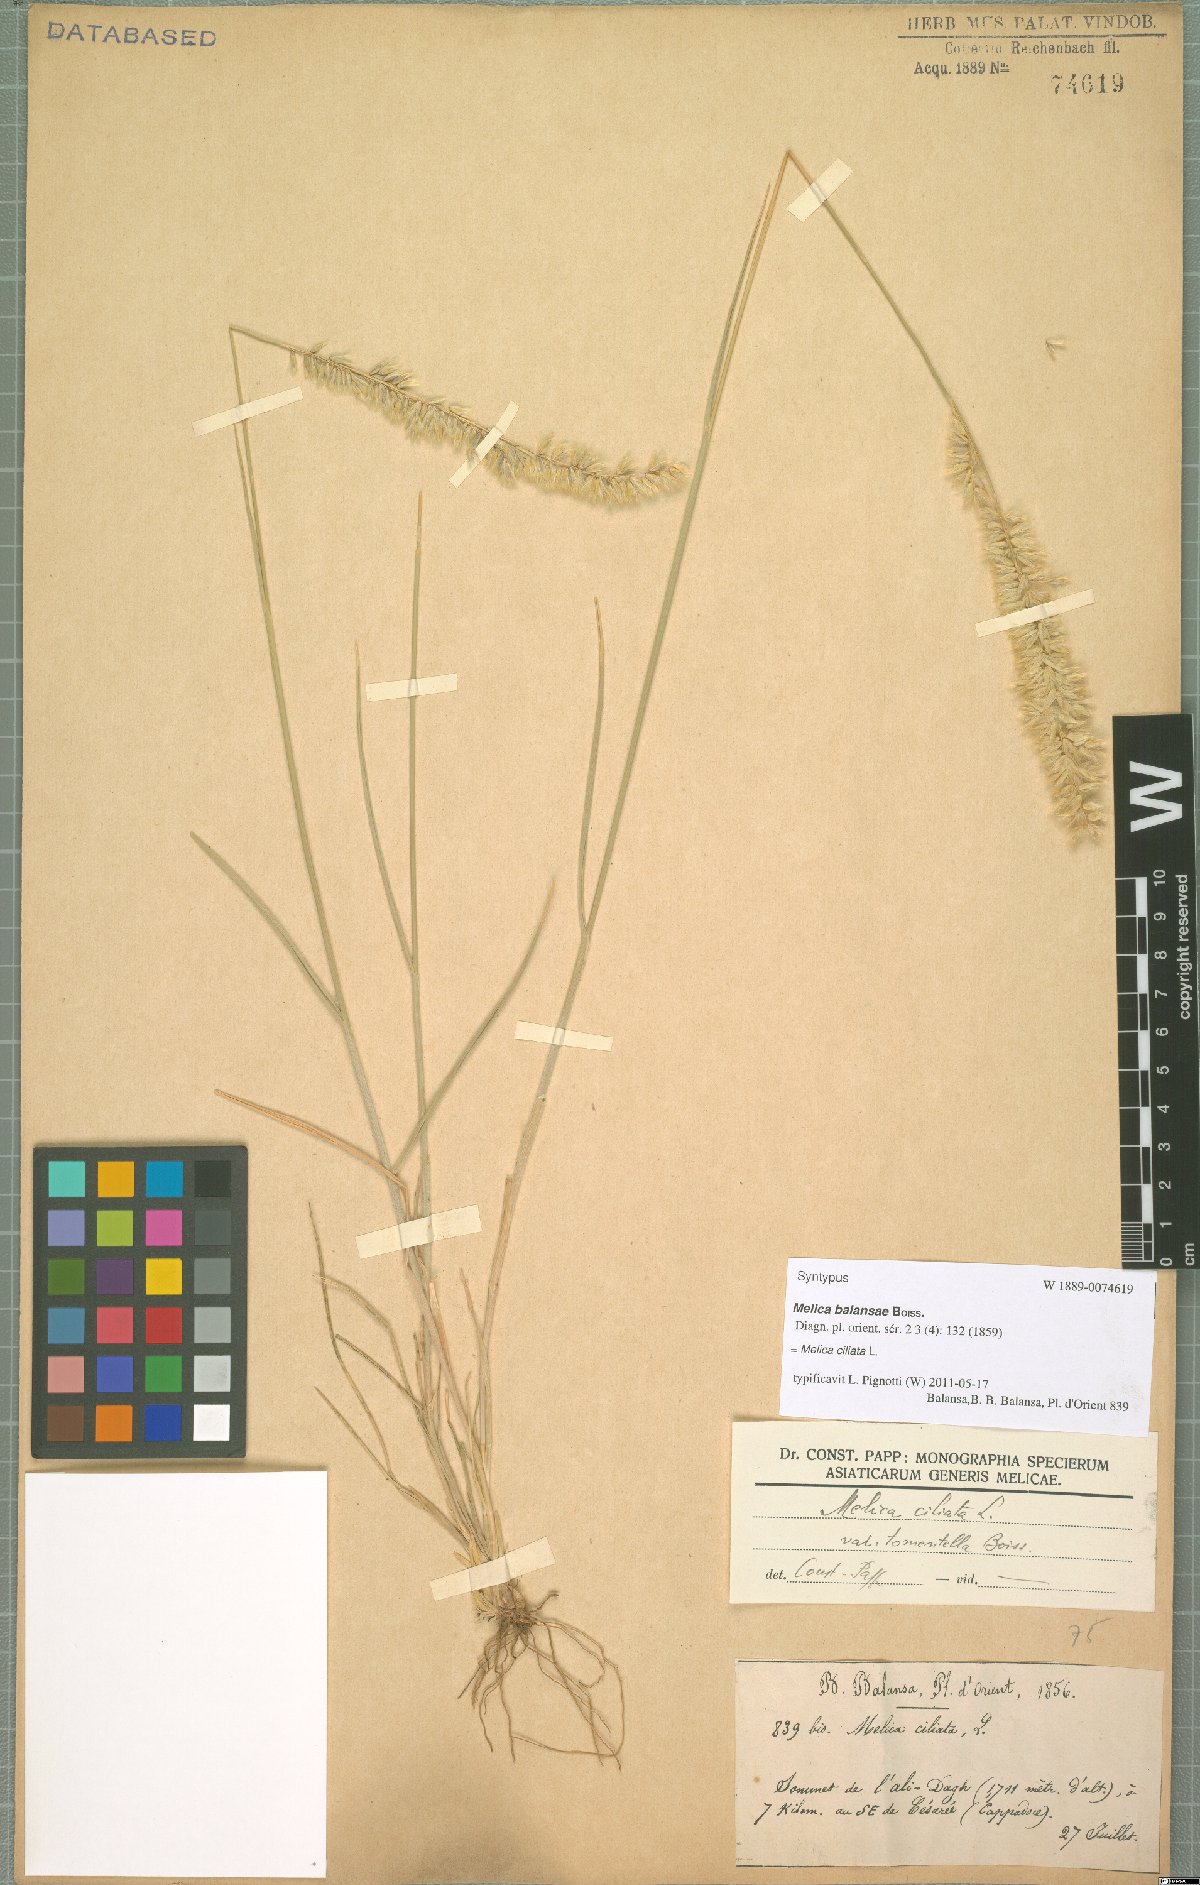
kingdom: Plantae
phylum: Tracheophyta
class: Liliopsida
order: Poales
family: Poaceae
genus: Melica
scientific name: Melica ciliata
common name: Hairy melicgrass
